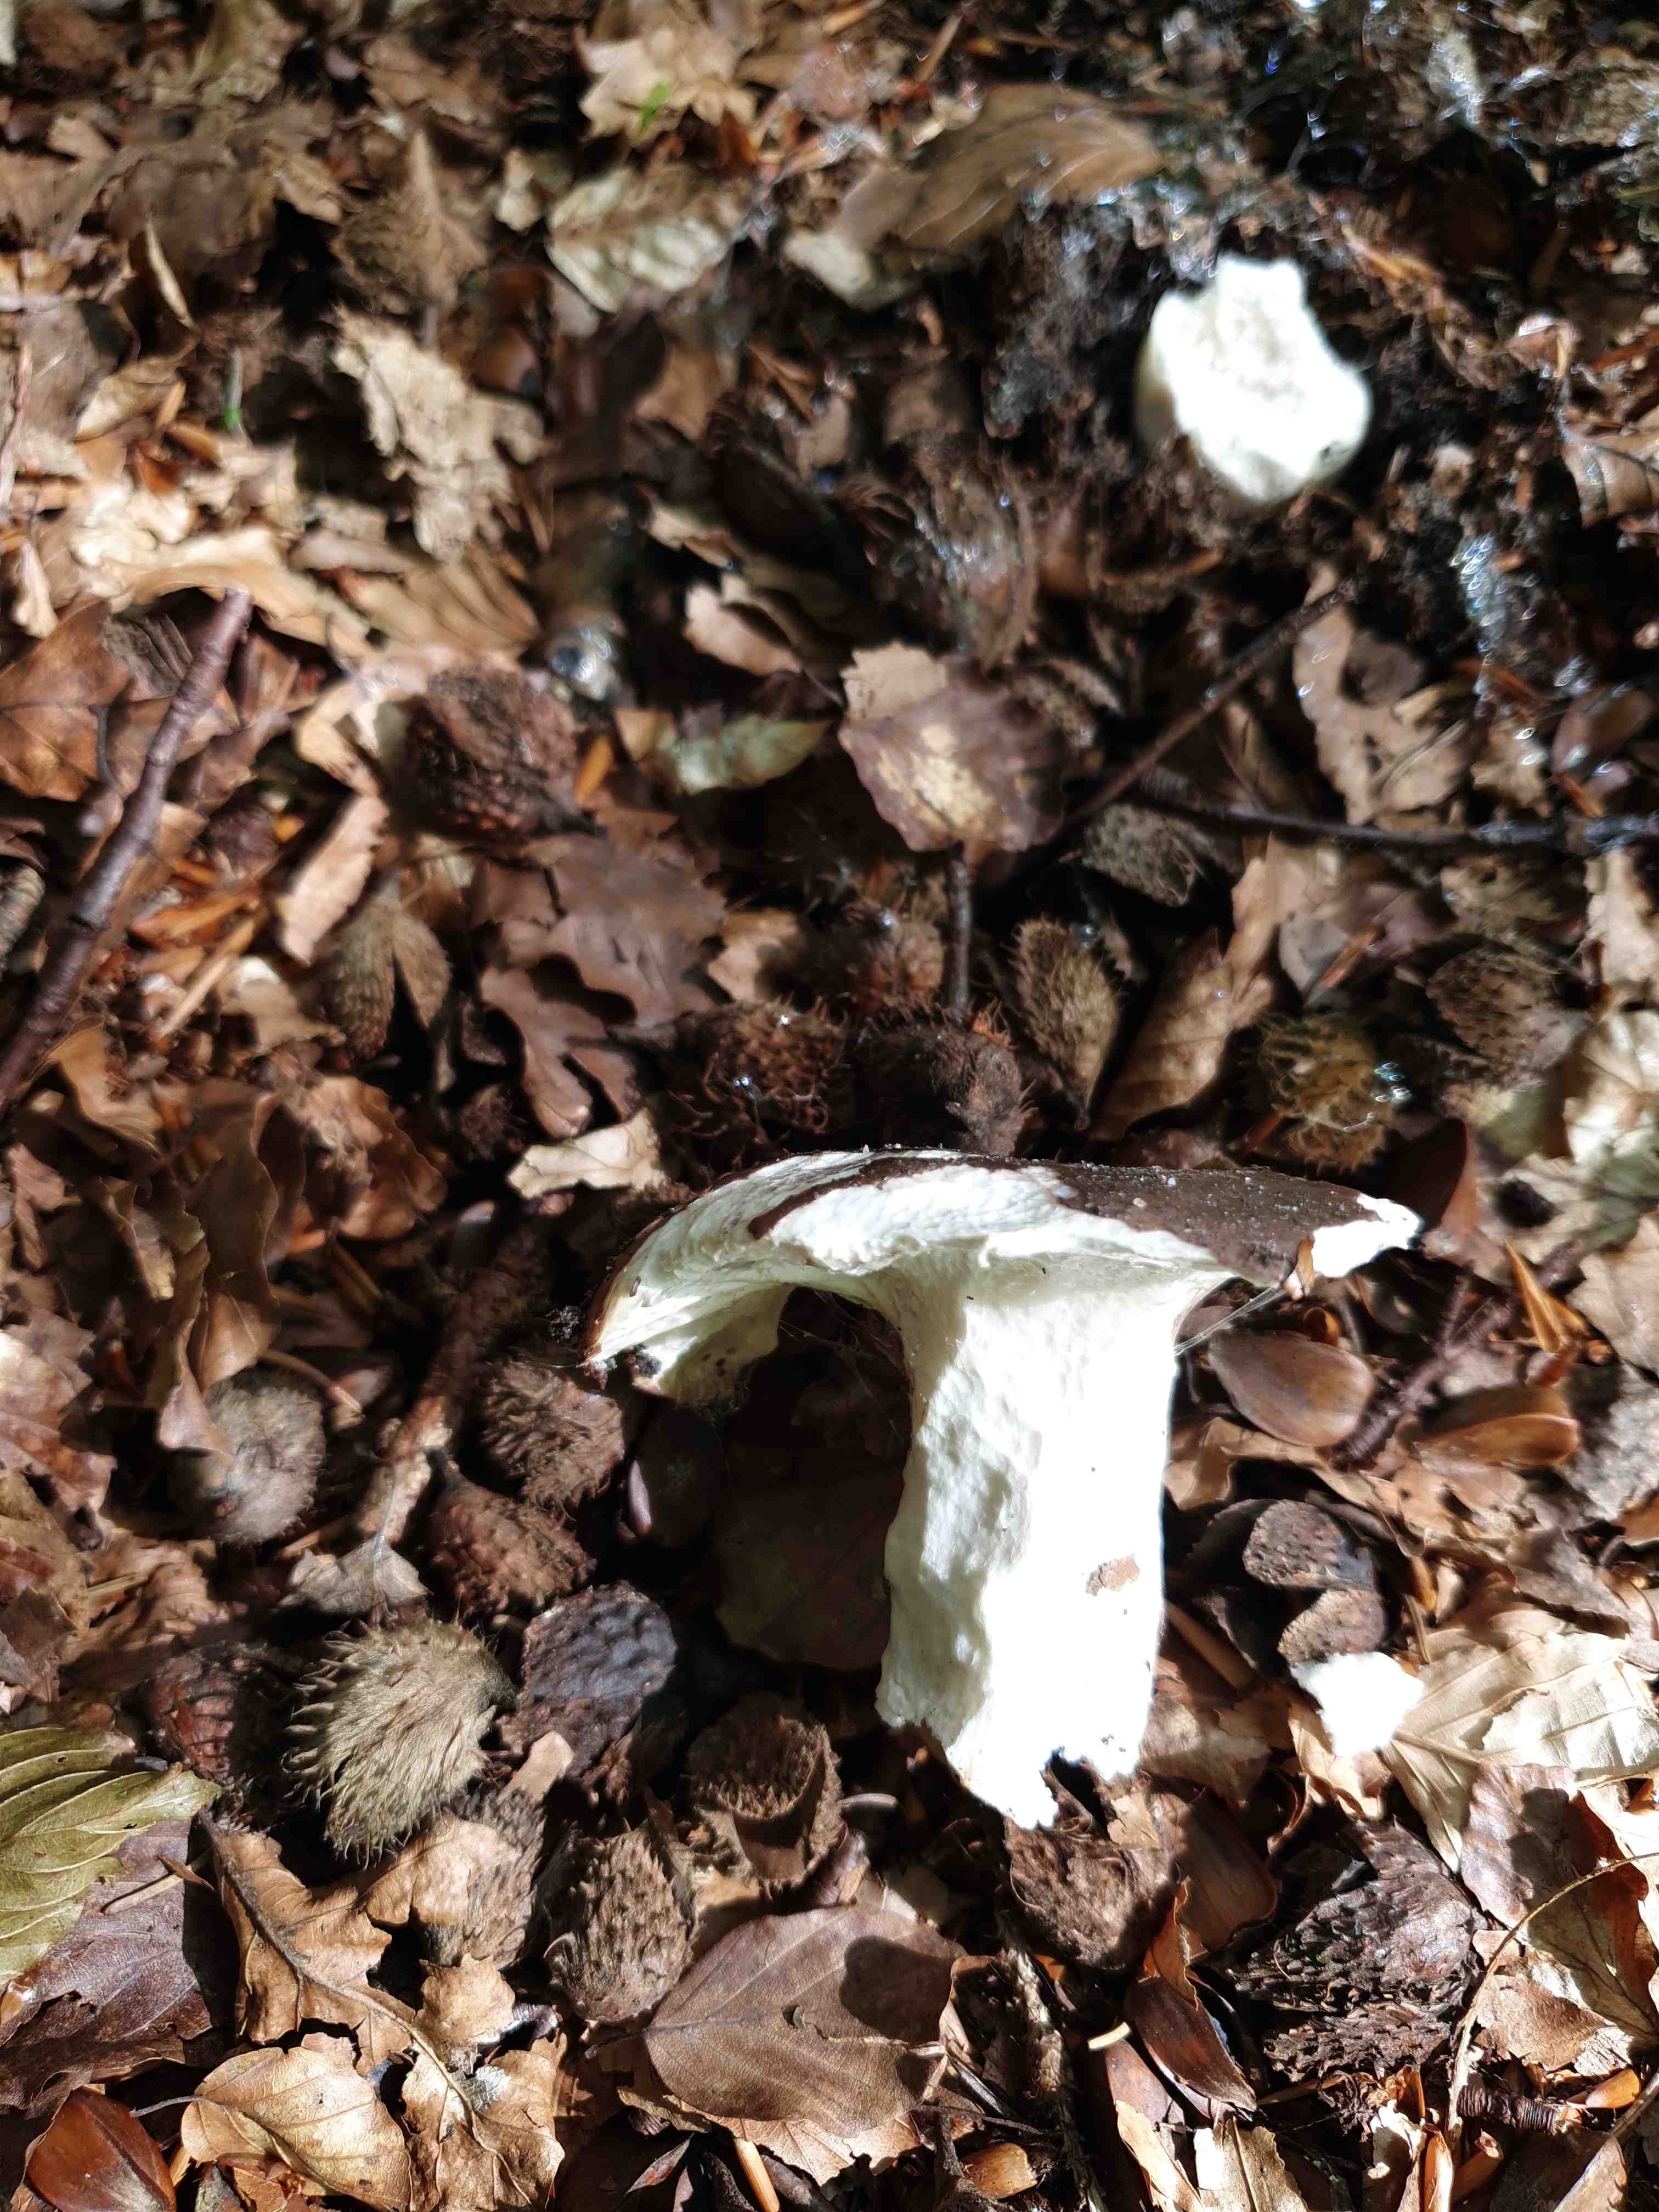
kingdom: Fungi
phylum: Basidiomycota
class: Agaricomycetes
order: Russulales
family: Russulaceae
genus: Russula
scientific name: Russula
